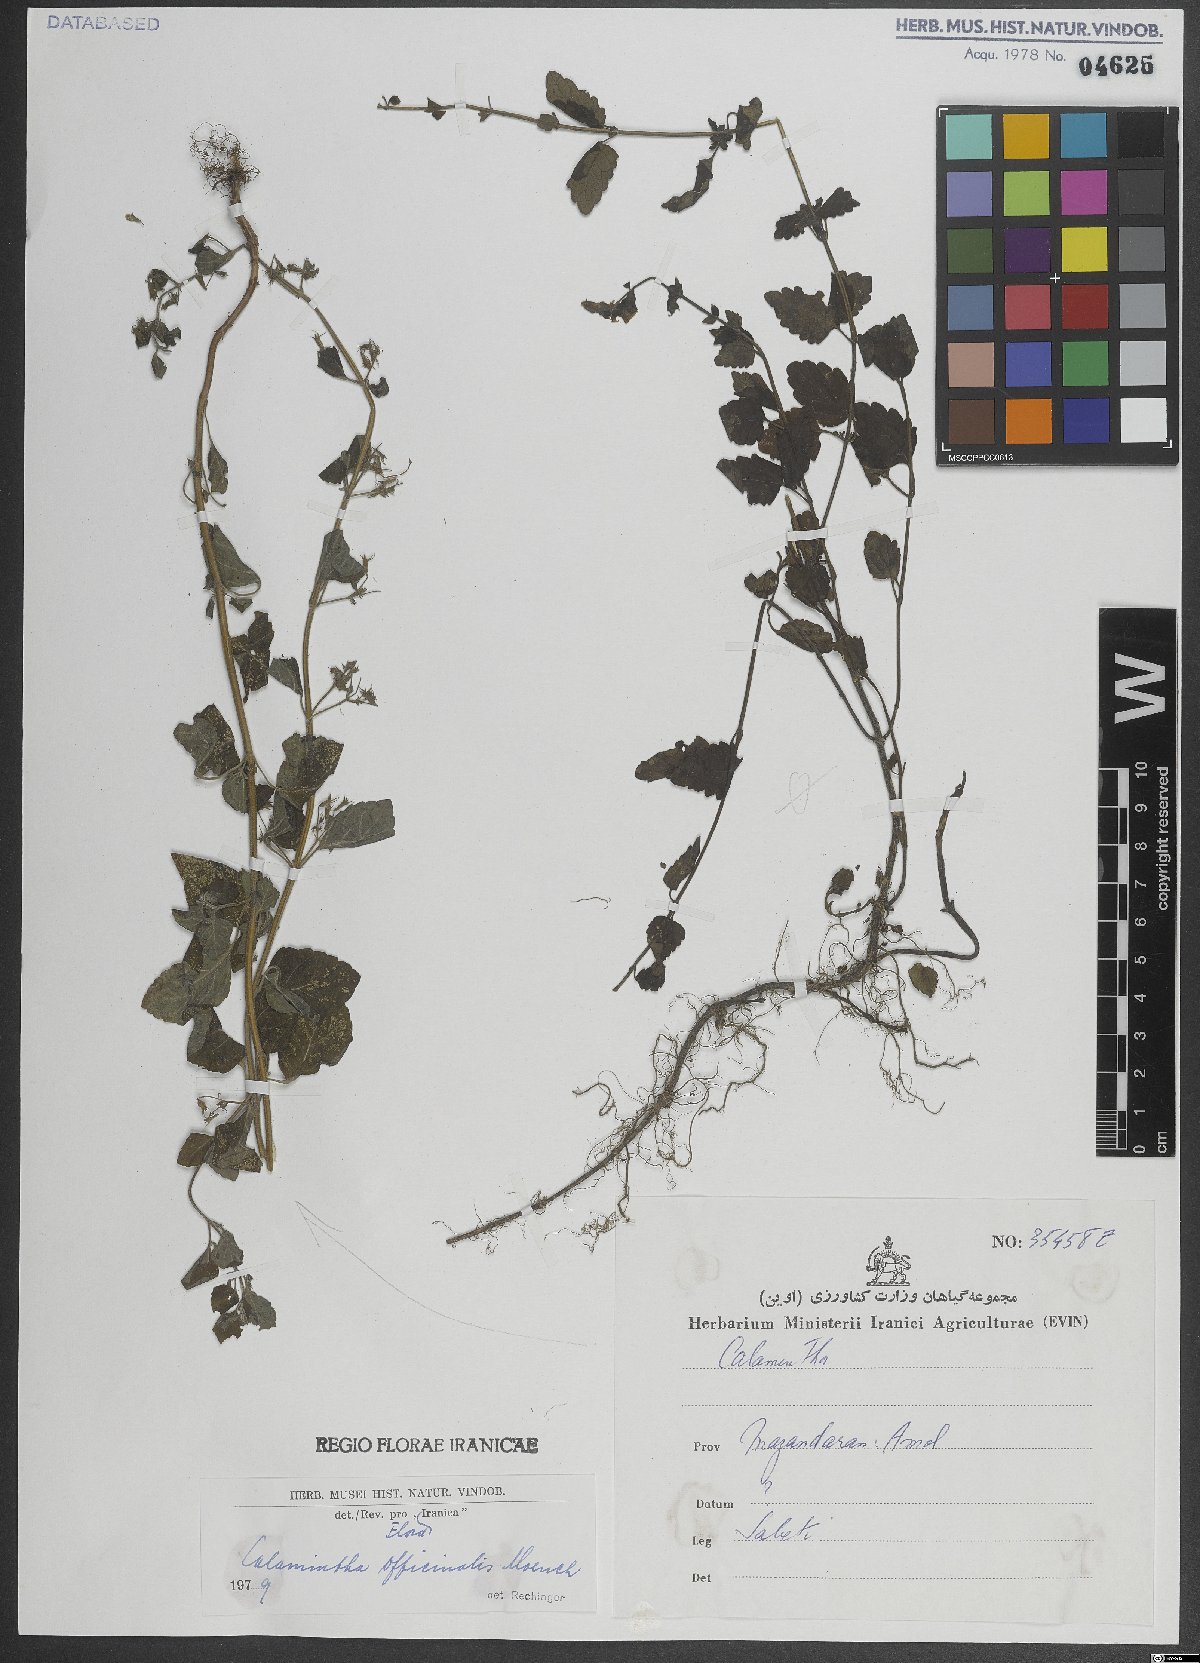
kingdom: Plantae
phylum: Tracheophyta
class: Magnoliopsida
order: Lamiales
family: Lamiaceae
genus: Clinopodium
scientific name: Clinopodium nepeta
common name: Lesser calamint
